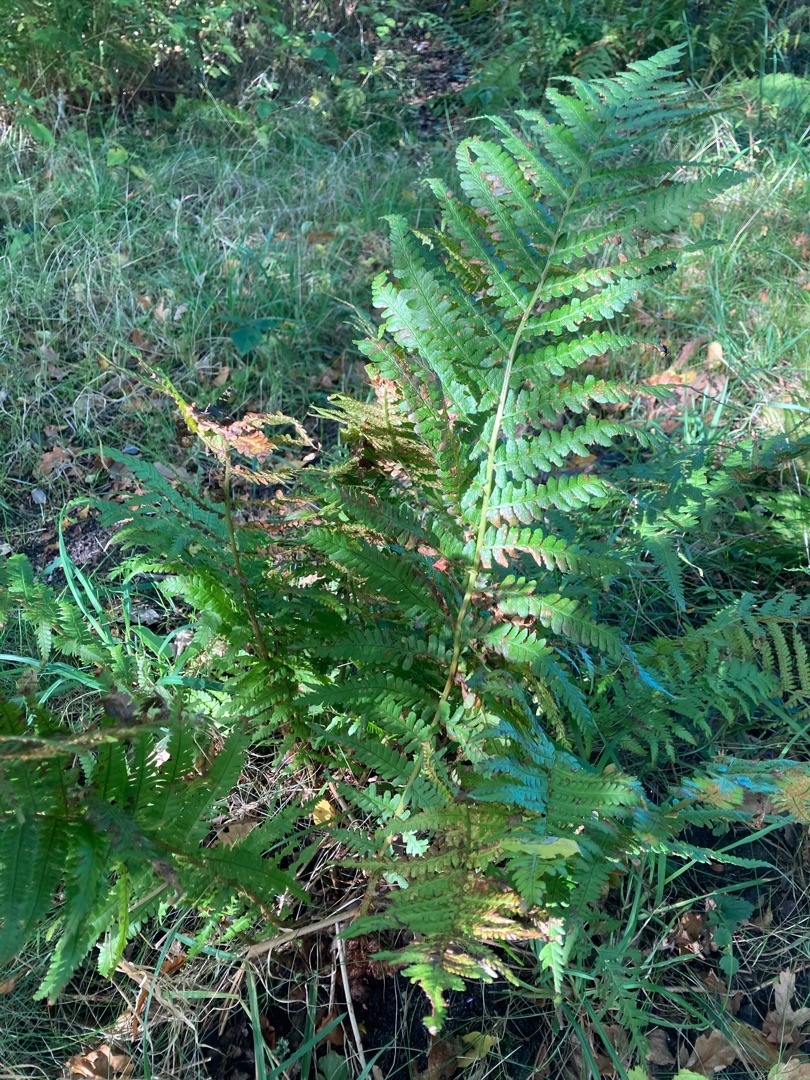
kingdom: Plantae
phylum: Tracheophyta
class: Polypodiopsida
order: Polypodiales
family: Dryopteridaceae
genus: Dryopteris
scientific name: Dryopteris filix-mas
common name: Almindelig mangeløv
